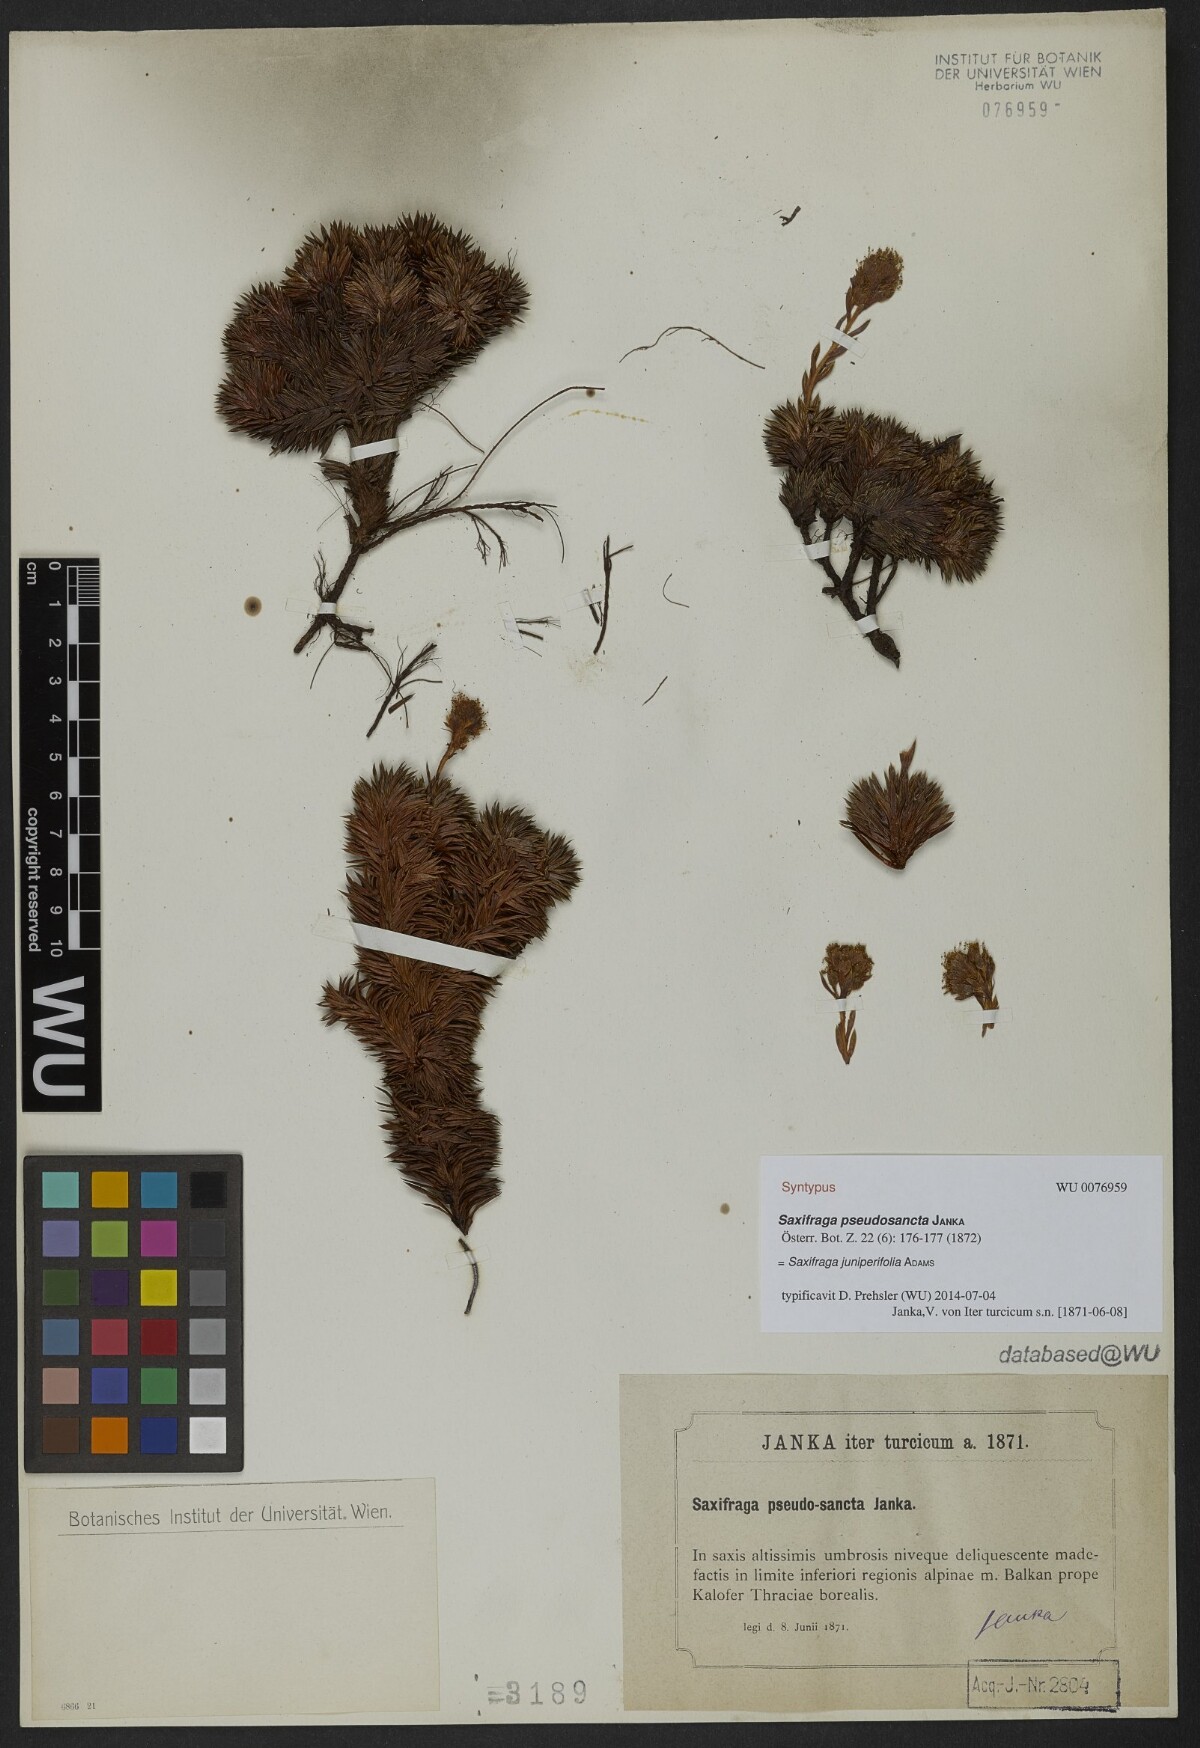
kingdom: Plantae
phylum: Tracheophyta
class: Magnoliopsida
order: Saxifragales
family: Saxifragaceae
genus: Saxifraga
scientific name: Saxifraga juniperifolia
